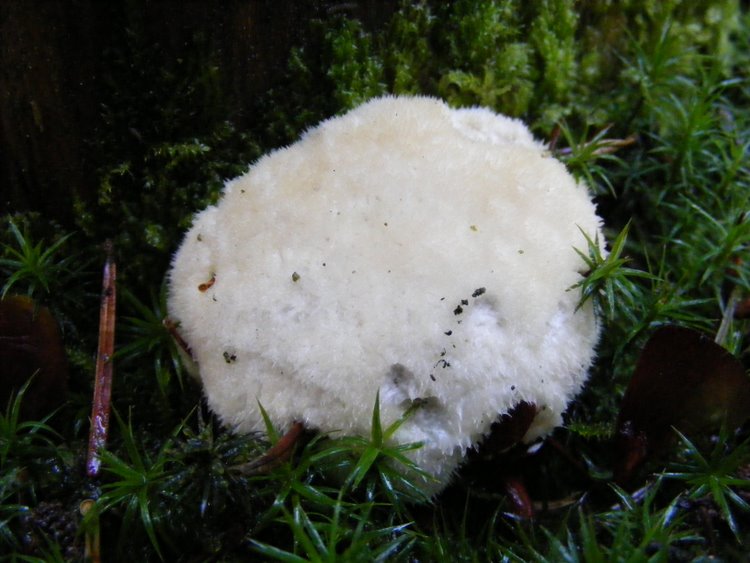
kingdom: Fungi
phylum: Basidiomycota
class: Agaricomycetes
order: Polyporales
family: Dacryobolaceae
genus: Postia
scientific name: Postia ptychogaster
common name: støvende kødporesvamp
